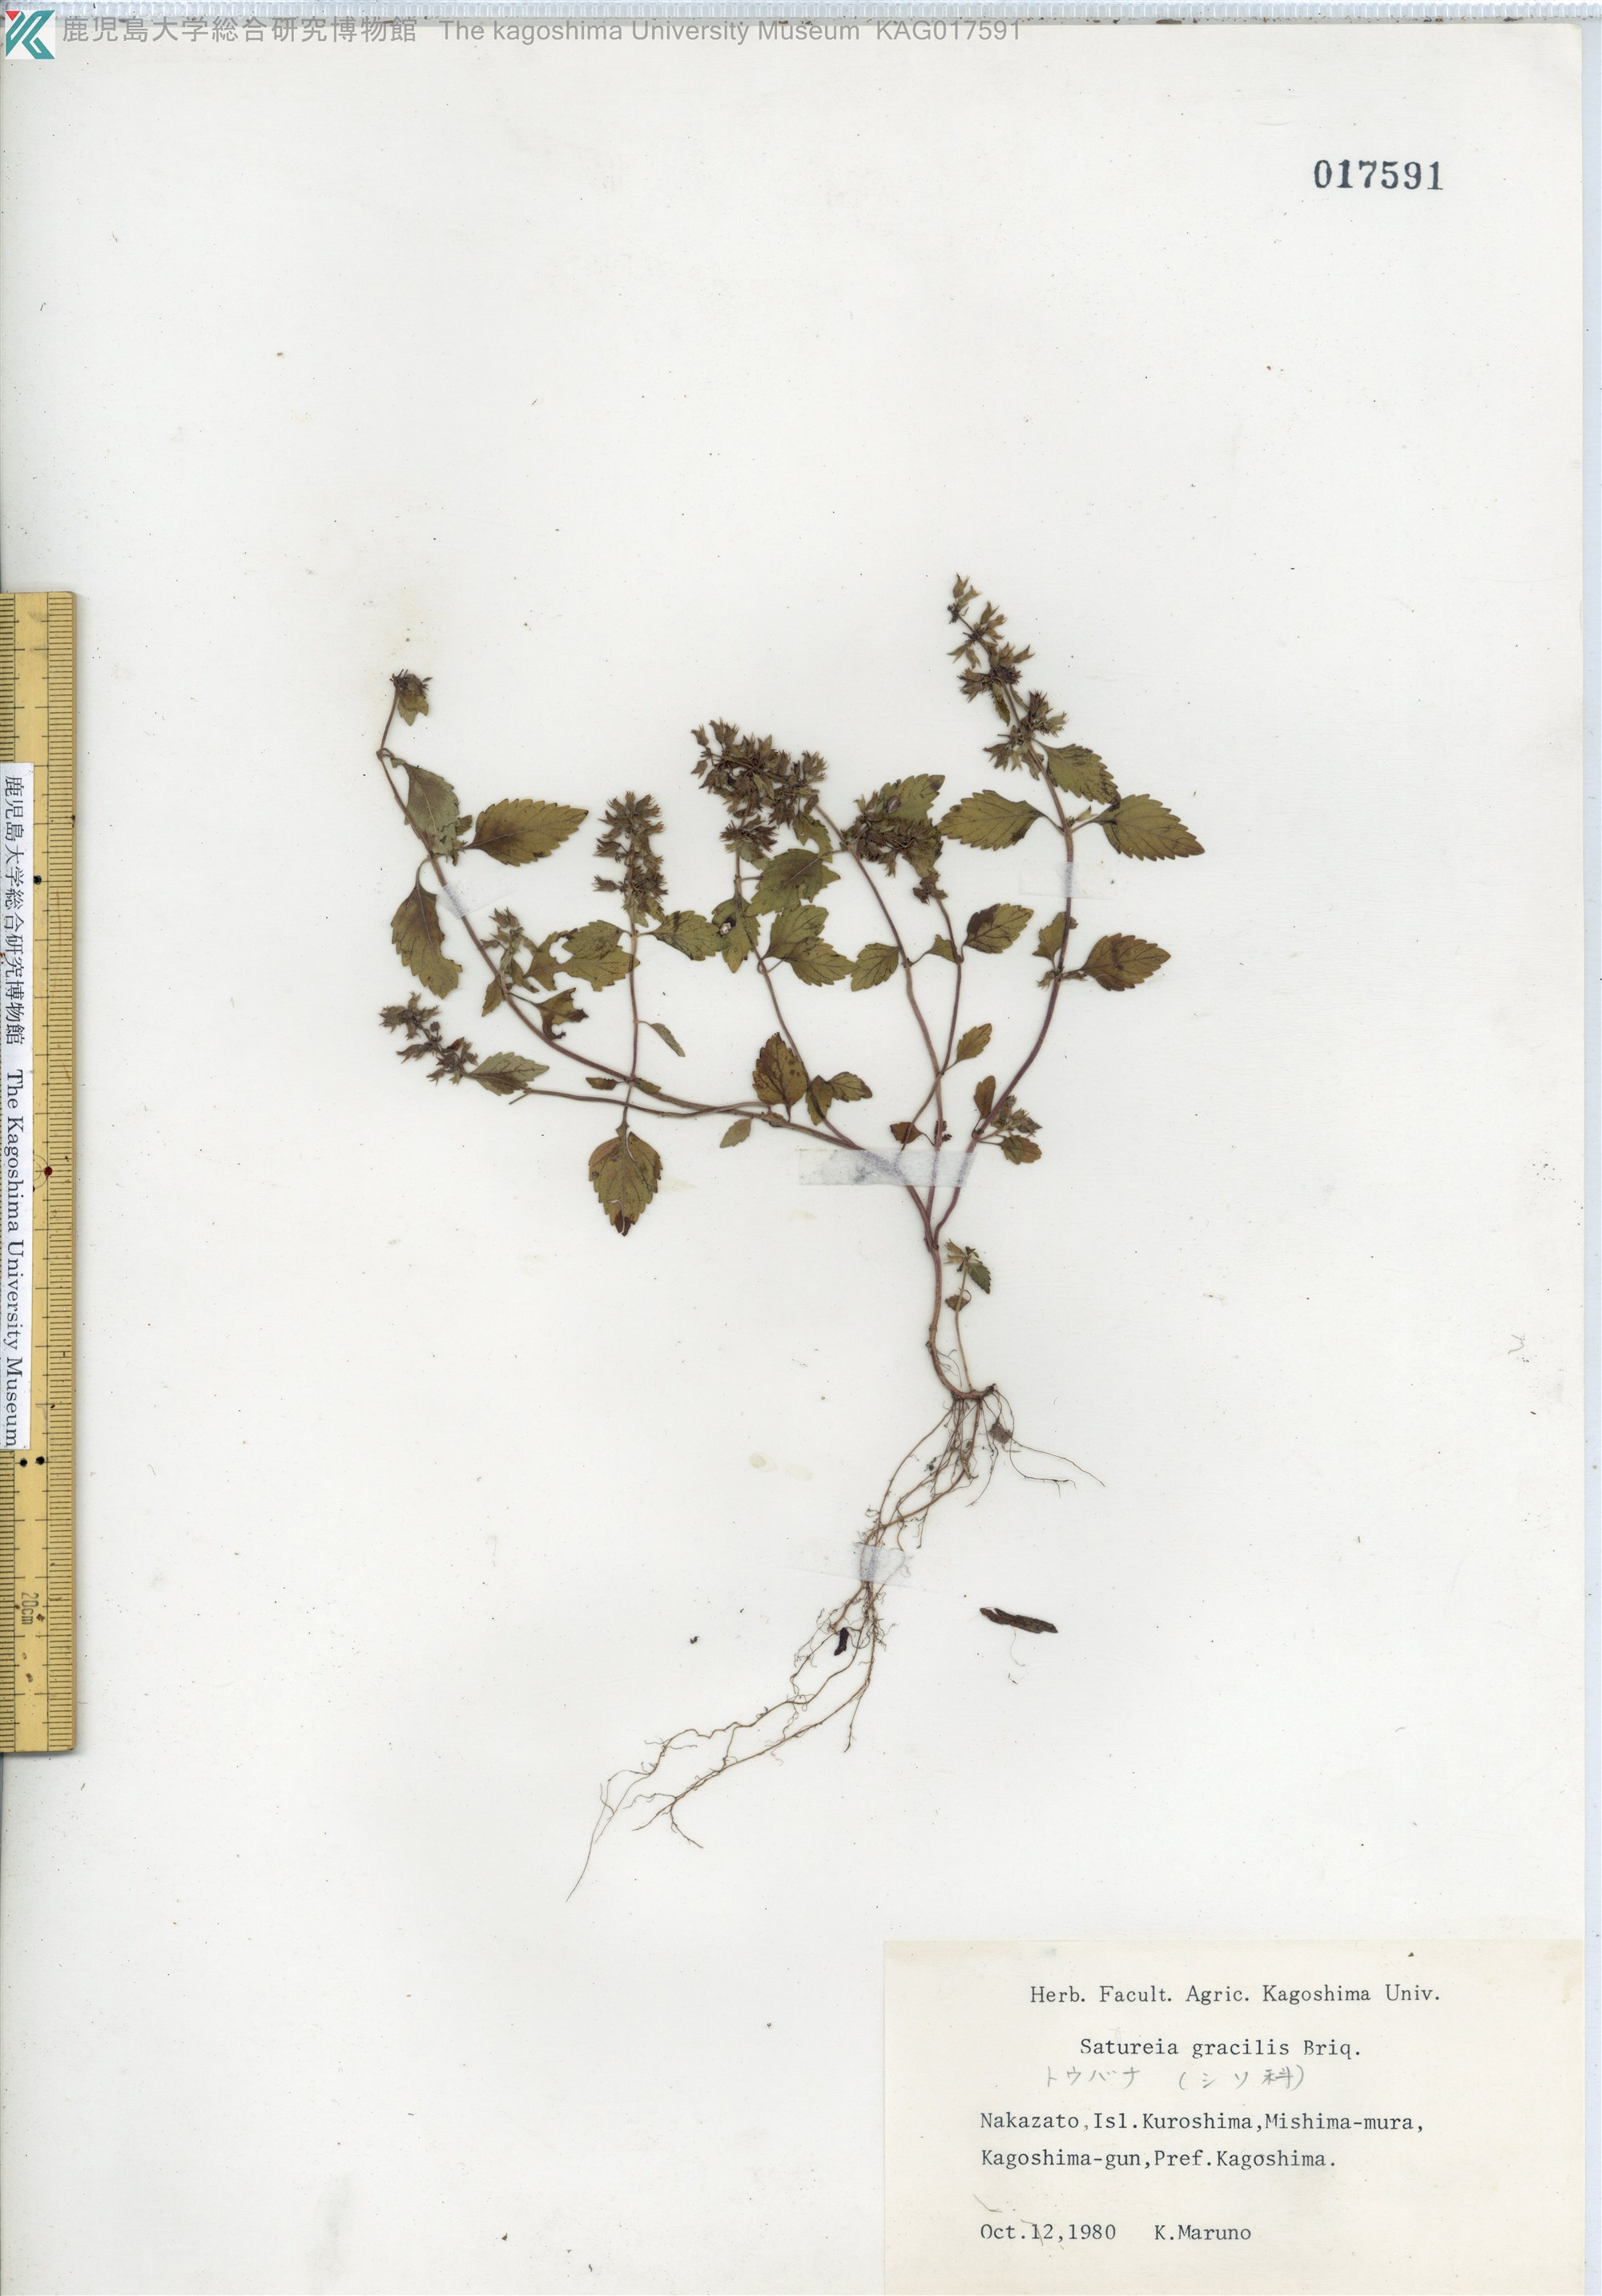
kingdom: Plantae
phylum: Tracheophyta
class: Magnoliopsida
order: Lamiales
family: Lamiaceae
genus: Clinopodium
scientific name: Clinopodium gracile
